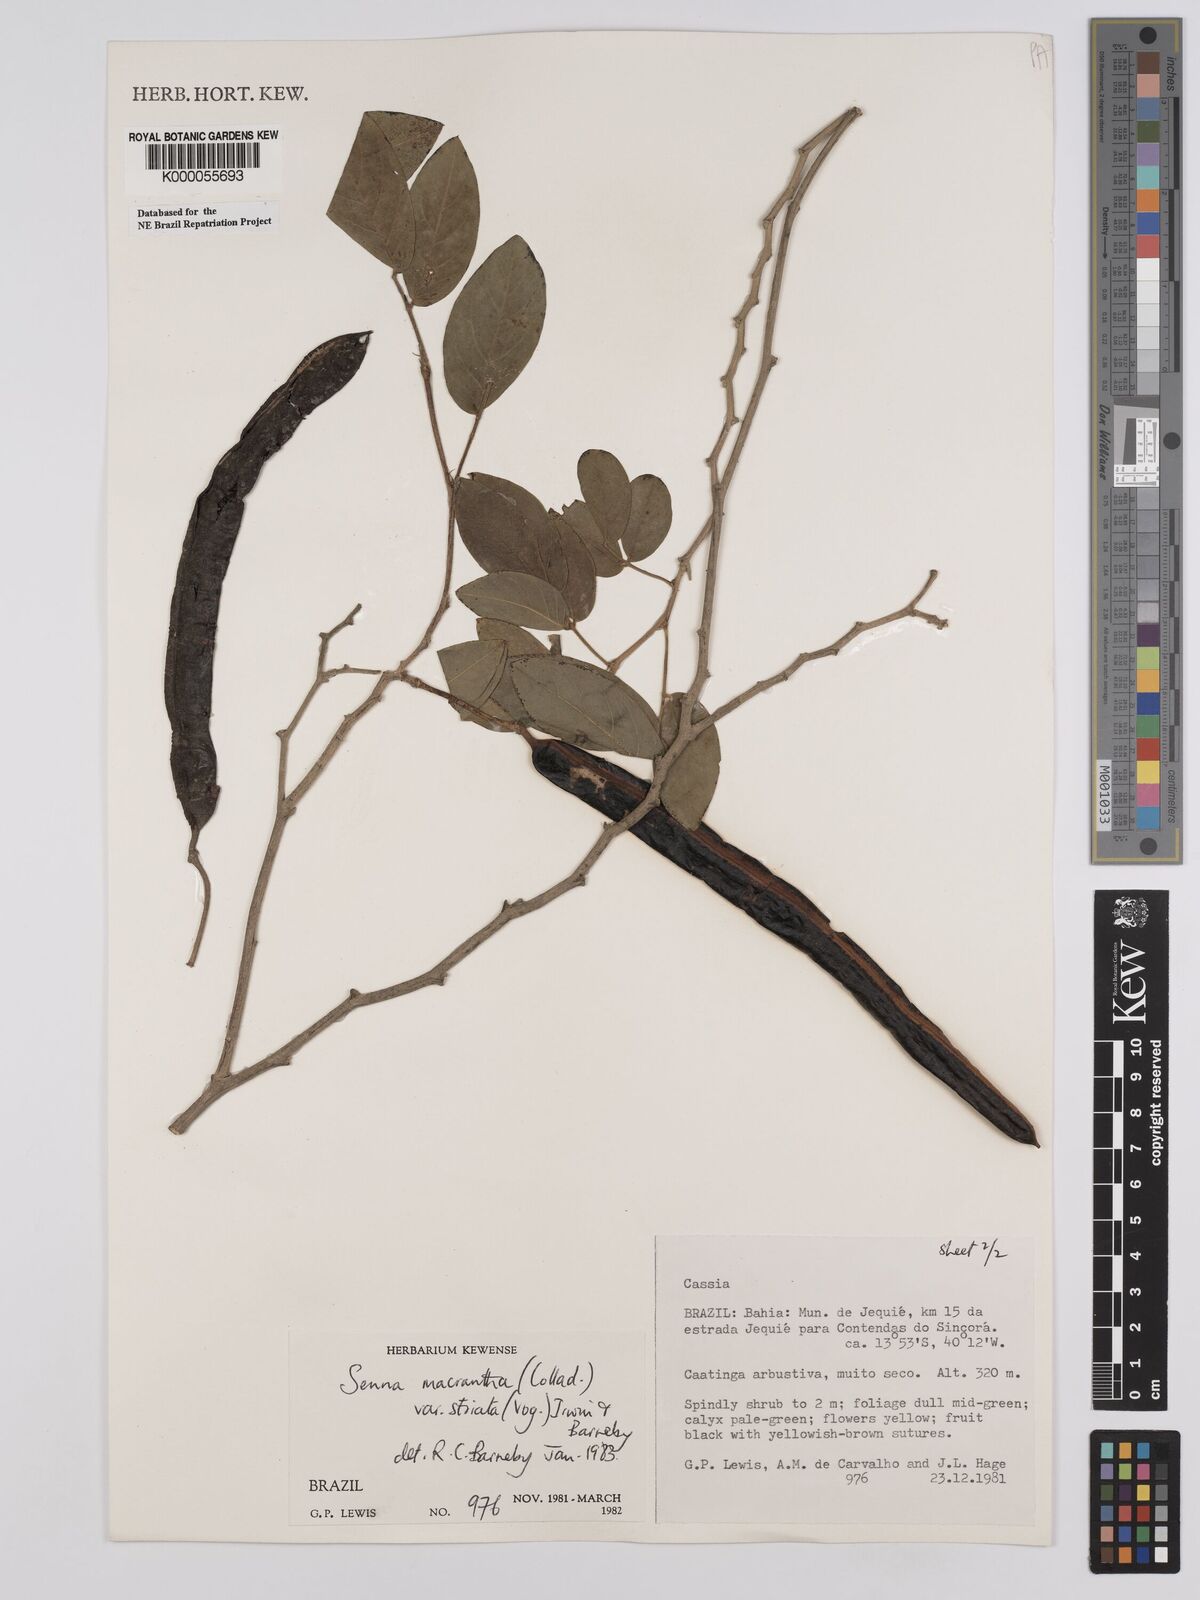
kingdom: Plantae
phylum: Tracheophyta
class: Magnoliopsida
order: Fabales
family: Fabaceae
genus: Senna
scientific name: Senna macranthera
